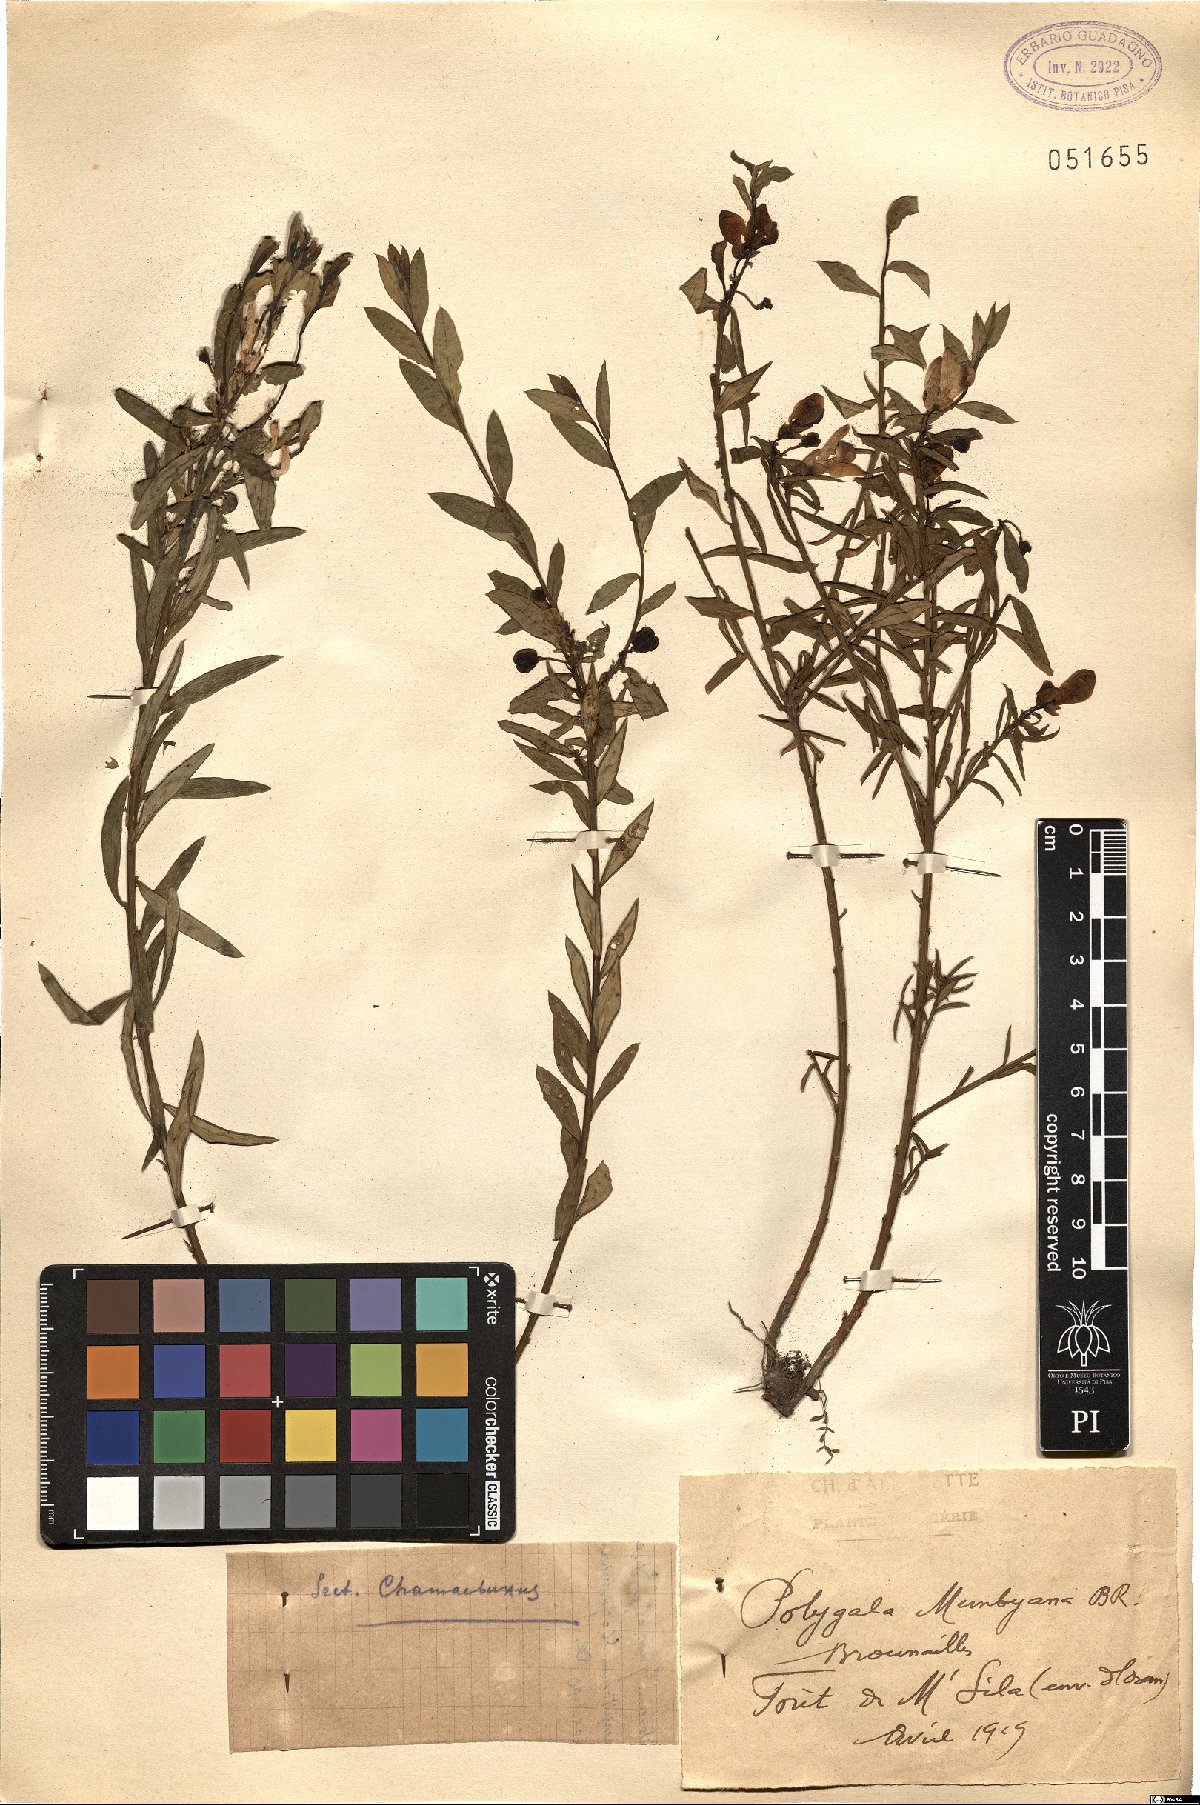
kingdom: Plantae
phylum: Tracheophyta
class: Magnoliopsida
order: Fabales
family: Polygalaceae
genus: Polygaloides
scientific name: Polygaloides munbyana
